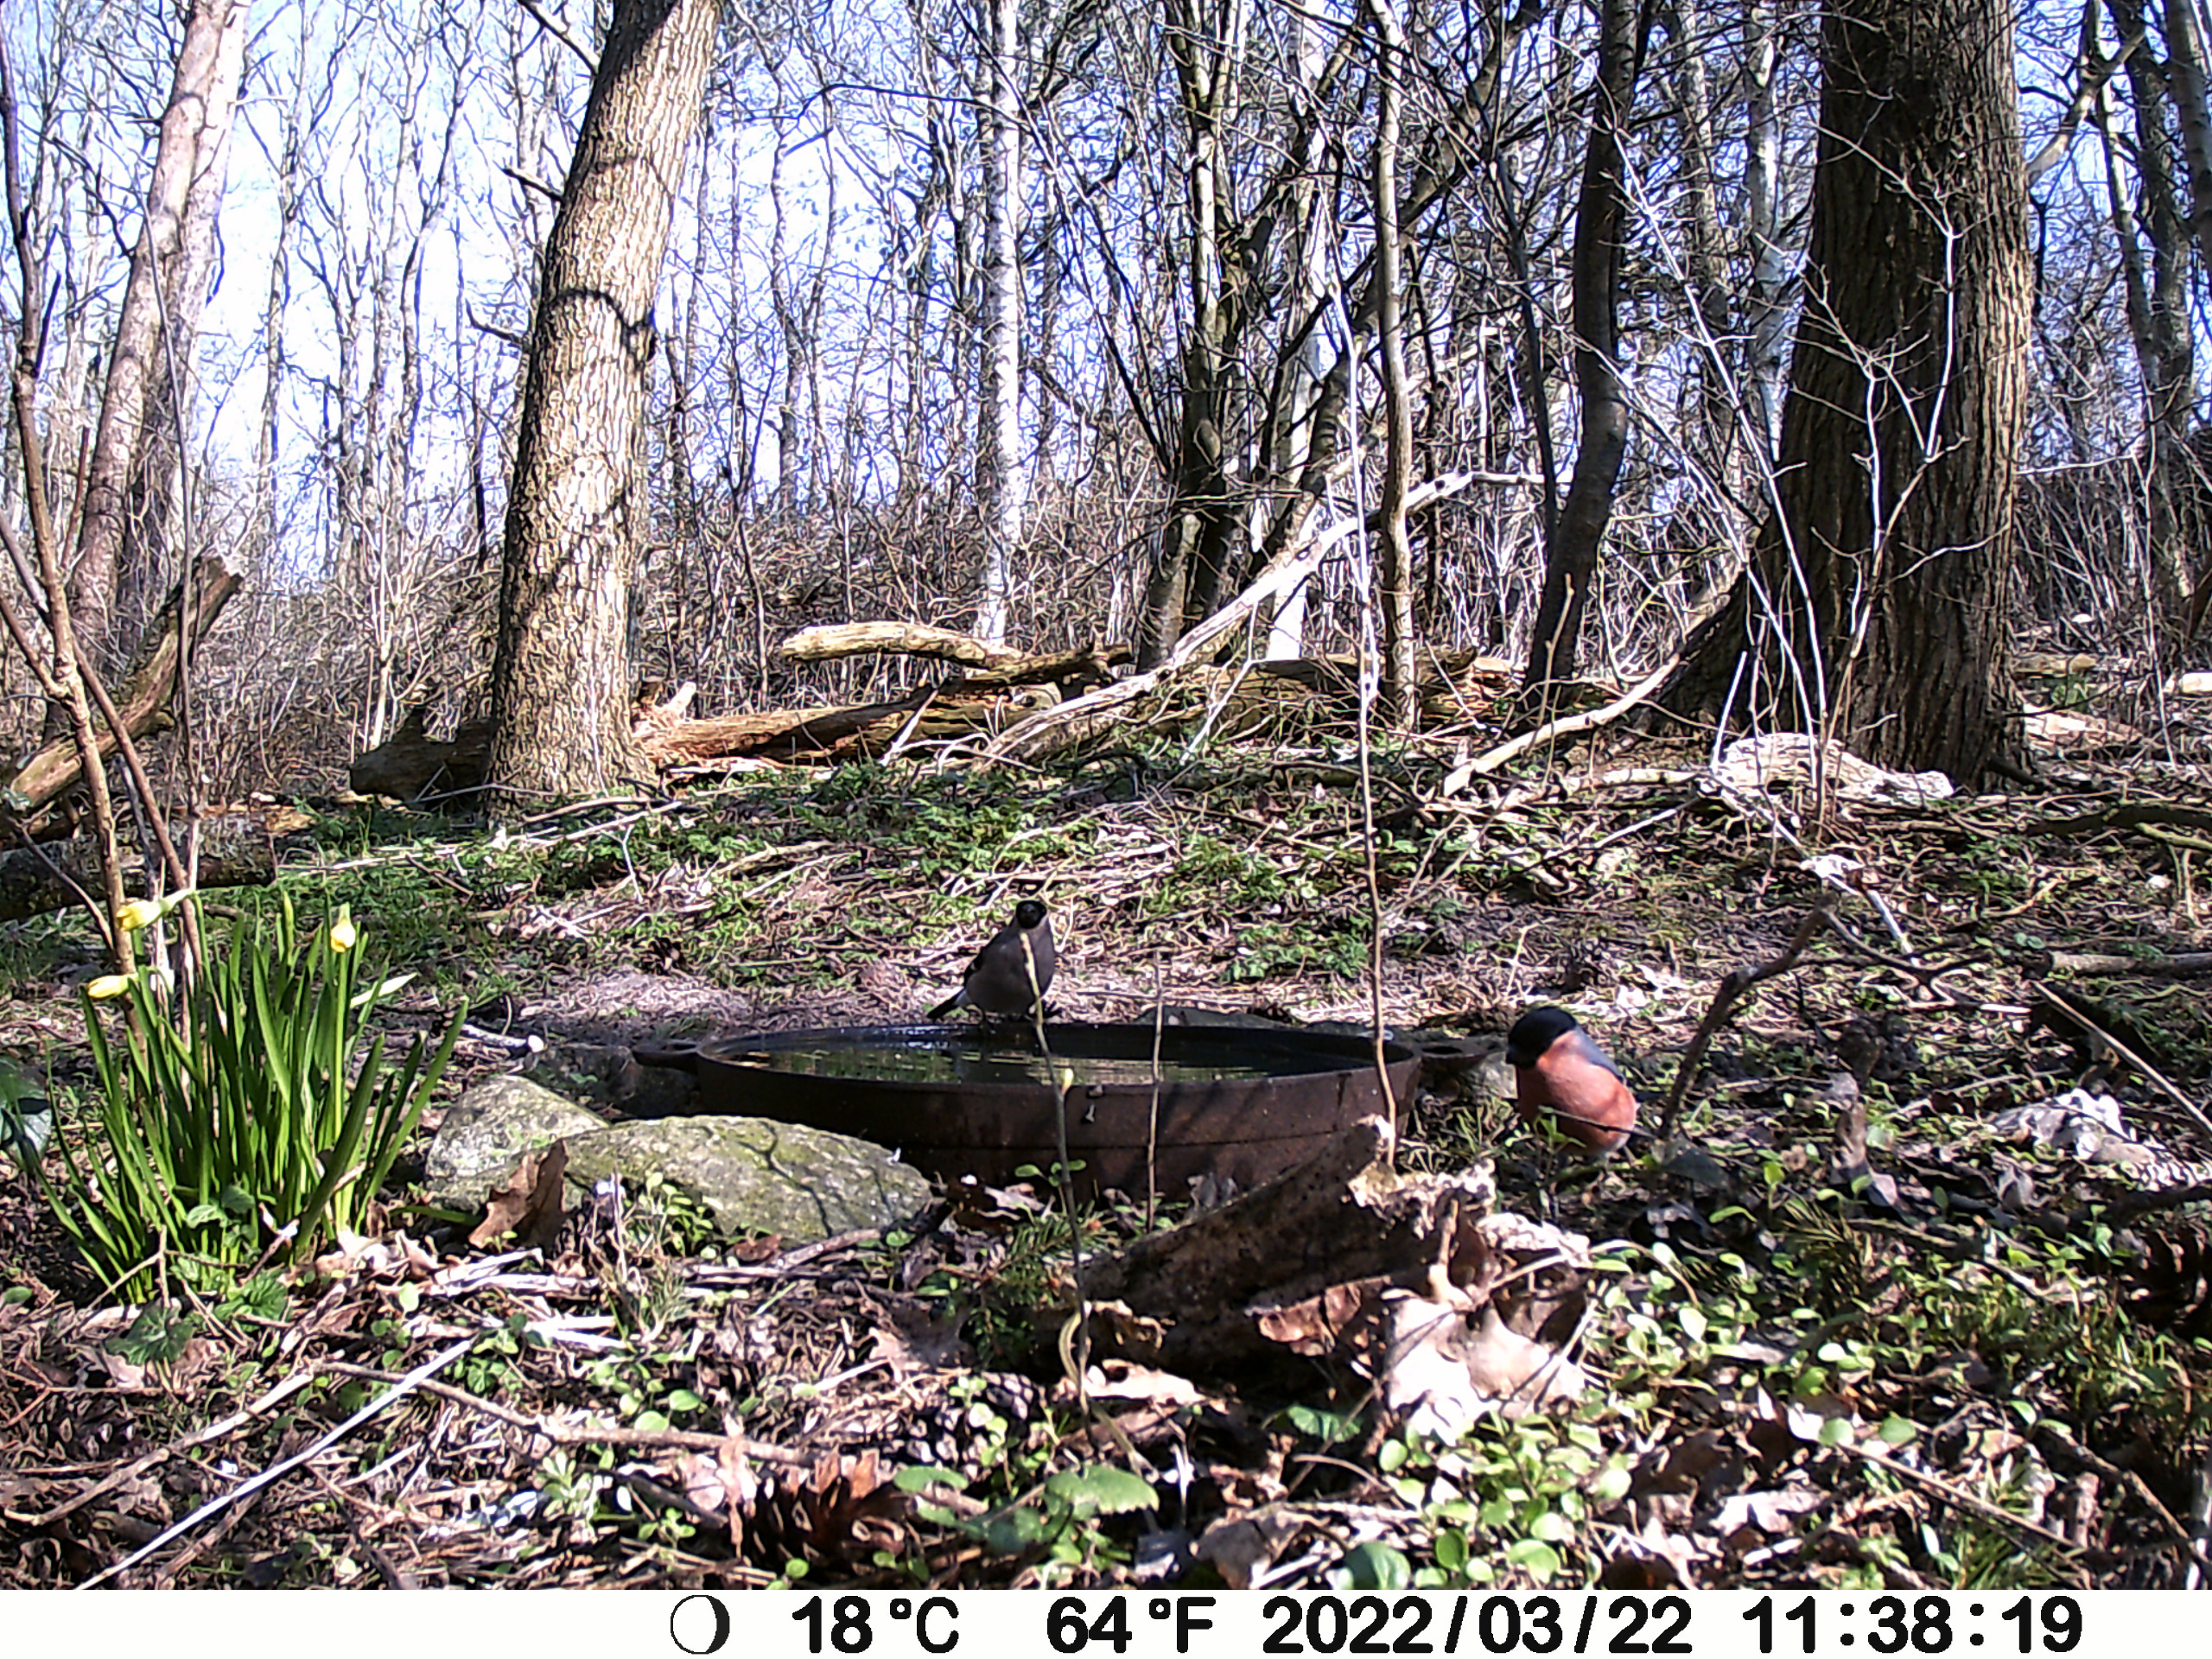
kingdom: Animalia
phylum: Chordata
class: Aves
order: Passeriformes
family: Fringillidae
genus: Pyrrhula
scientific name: Pyrrhula pyrrhula
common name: Dompap
